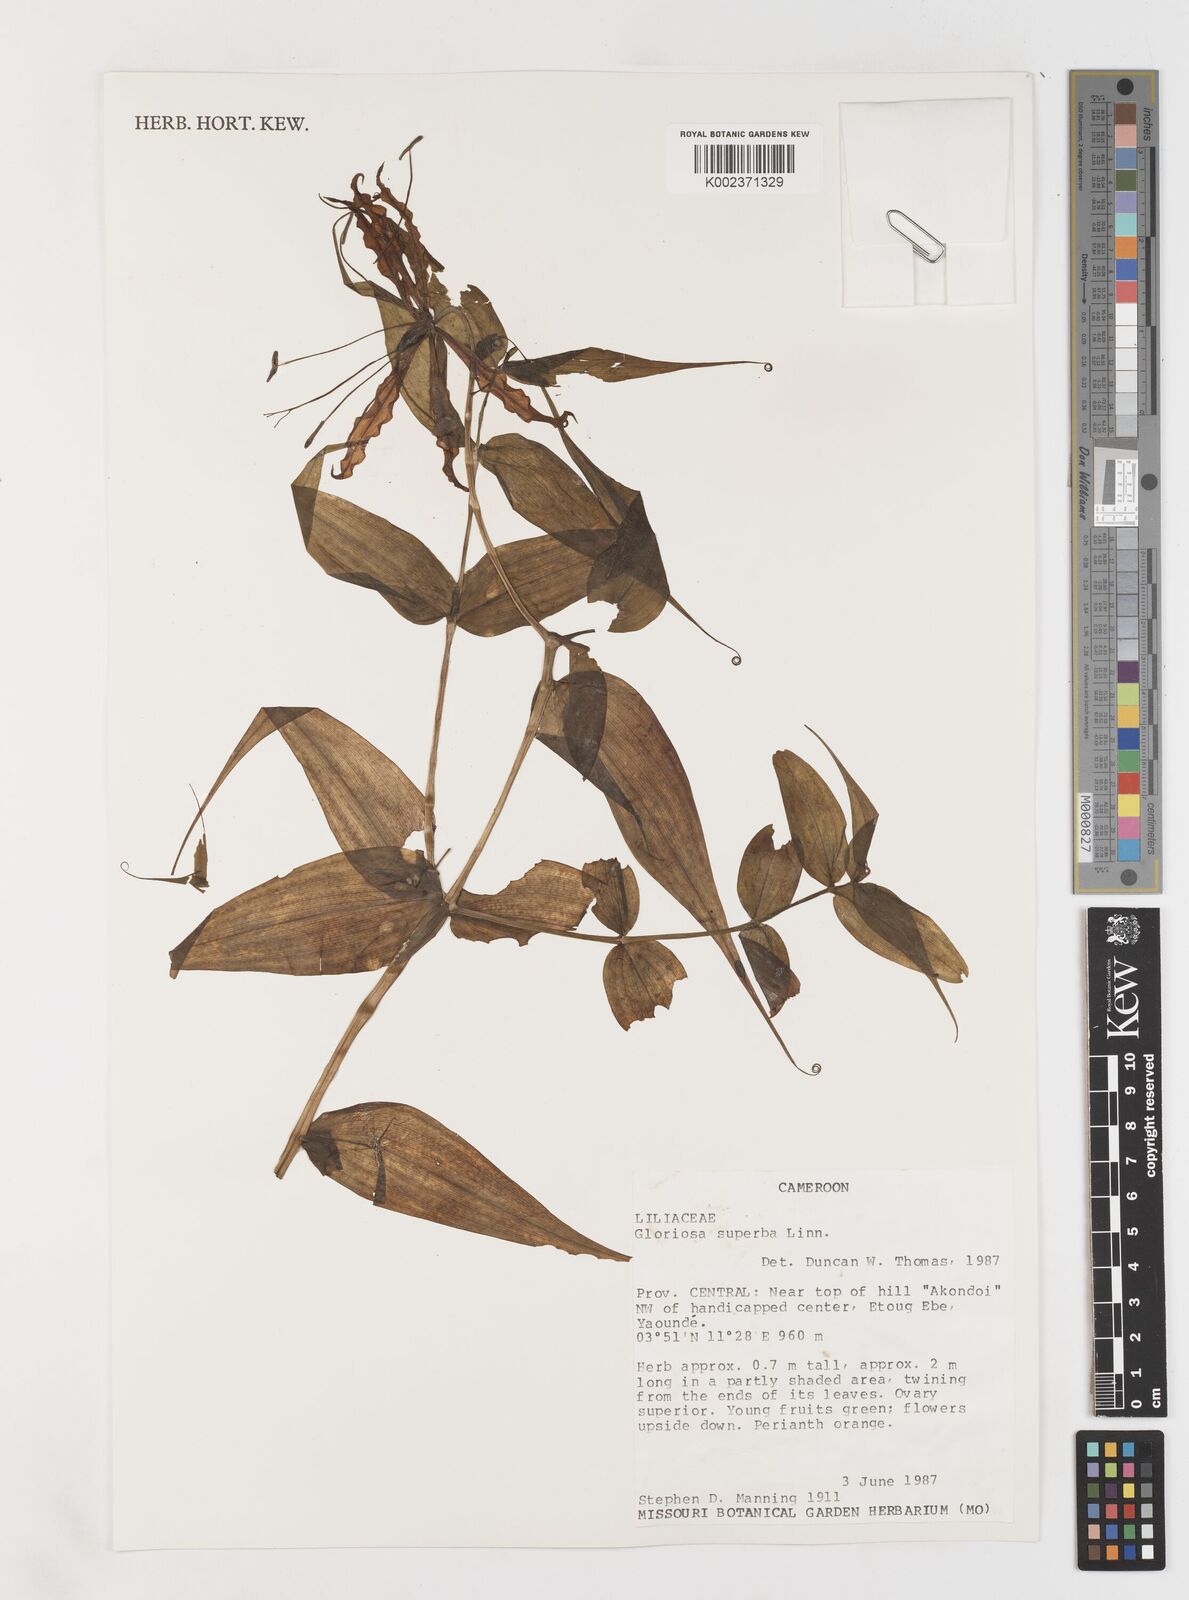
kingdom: Plantae
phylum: Tracheophyta
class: Liliopsida
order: Liliales
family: Colchicaceae
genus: Gloriosa
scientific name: Gloriosa superba
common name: Flame lily
